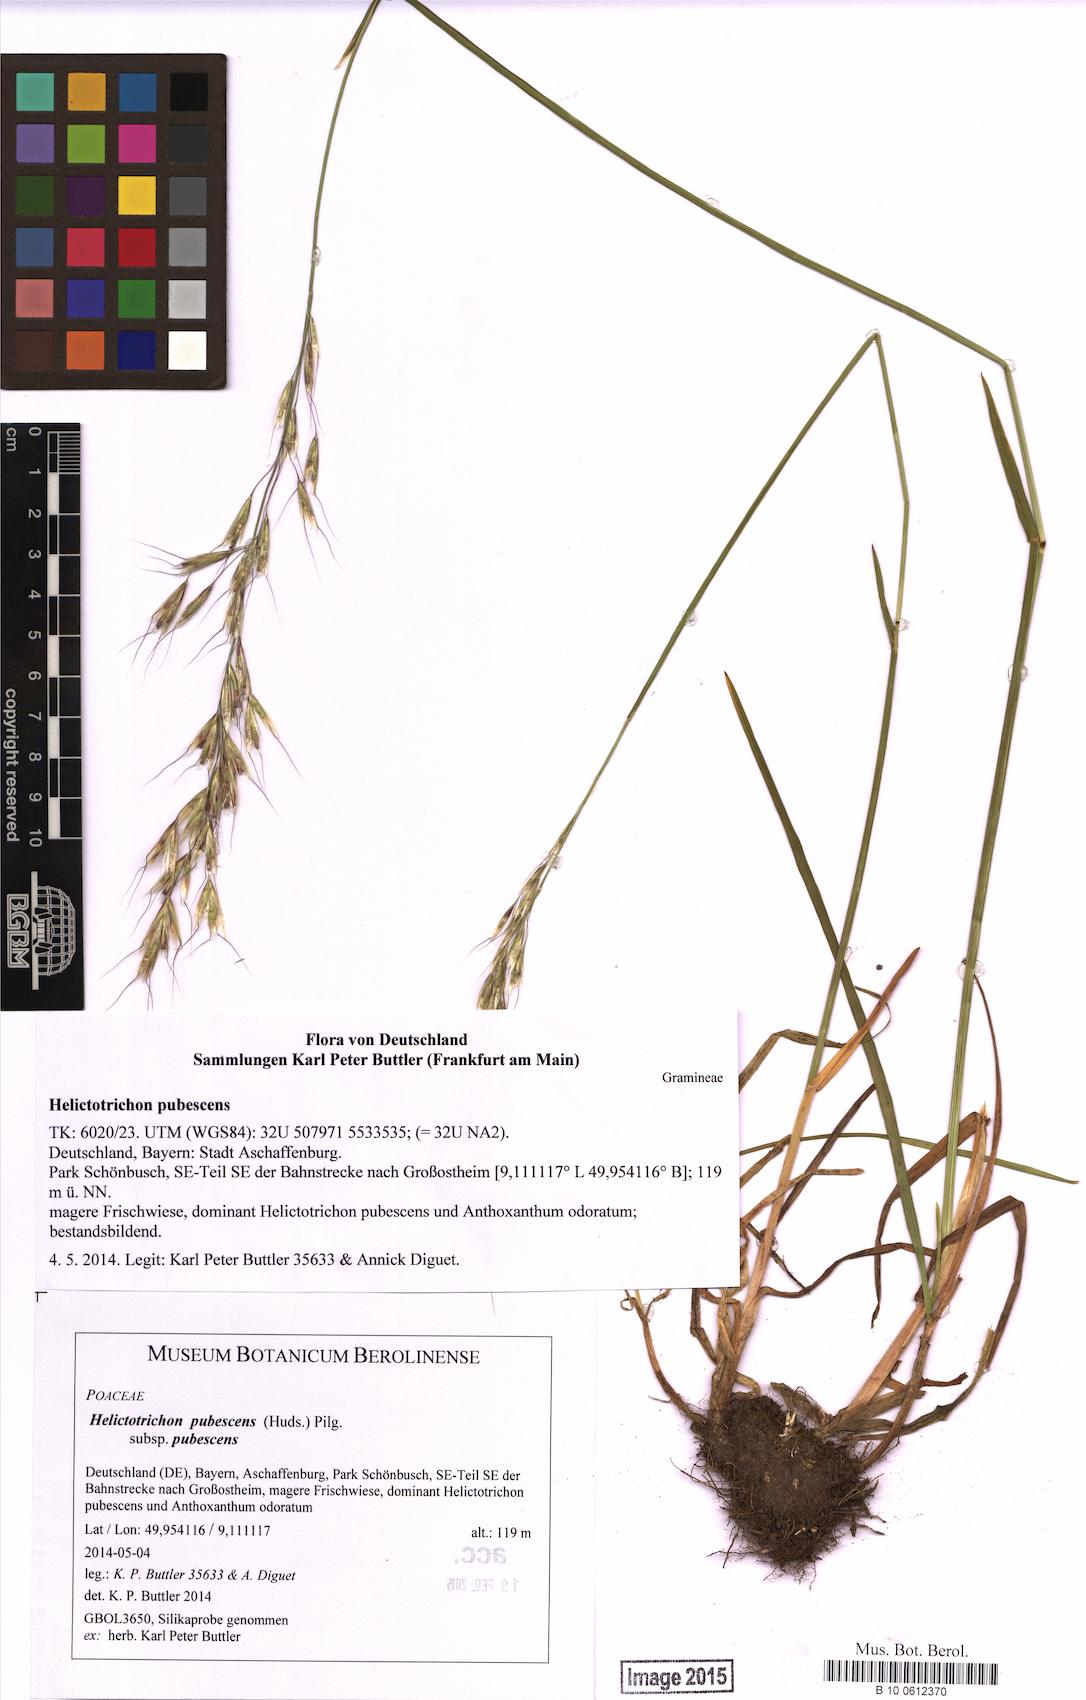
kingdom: Plantae
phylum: Tracheophyta
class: Liliopsida
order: Poales
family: Poaceae
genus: Avenula
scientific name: Avenula pubescens
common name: Downy alpine oatgrass
